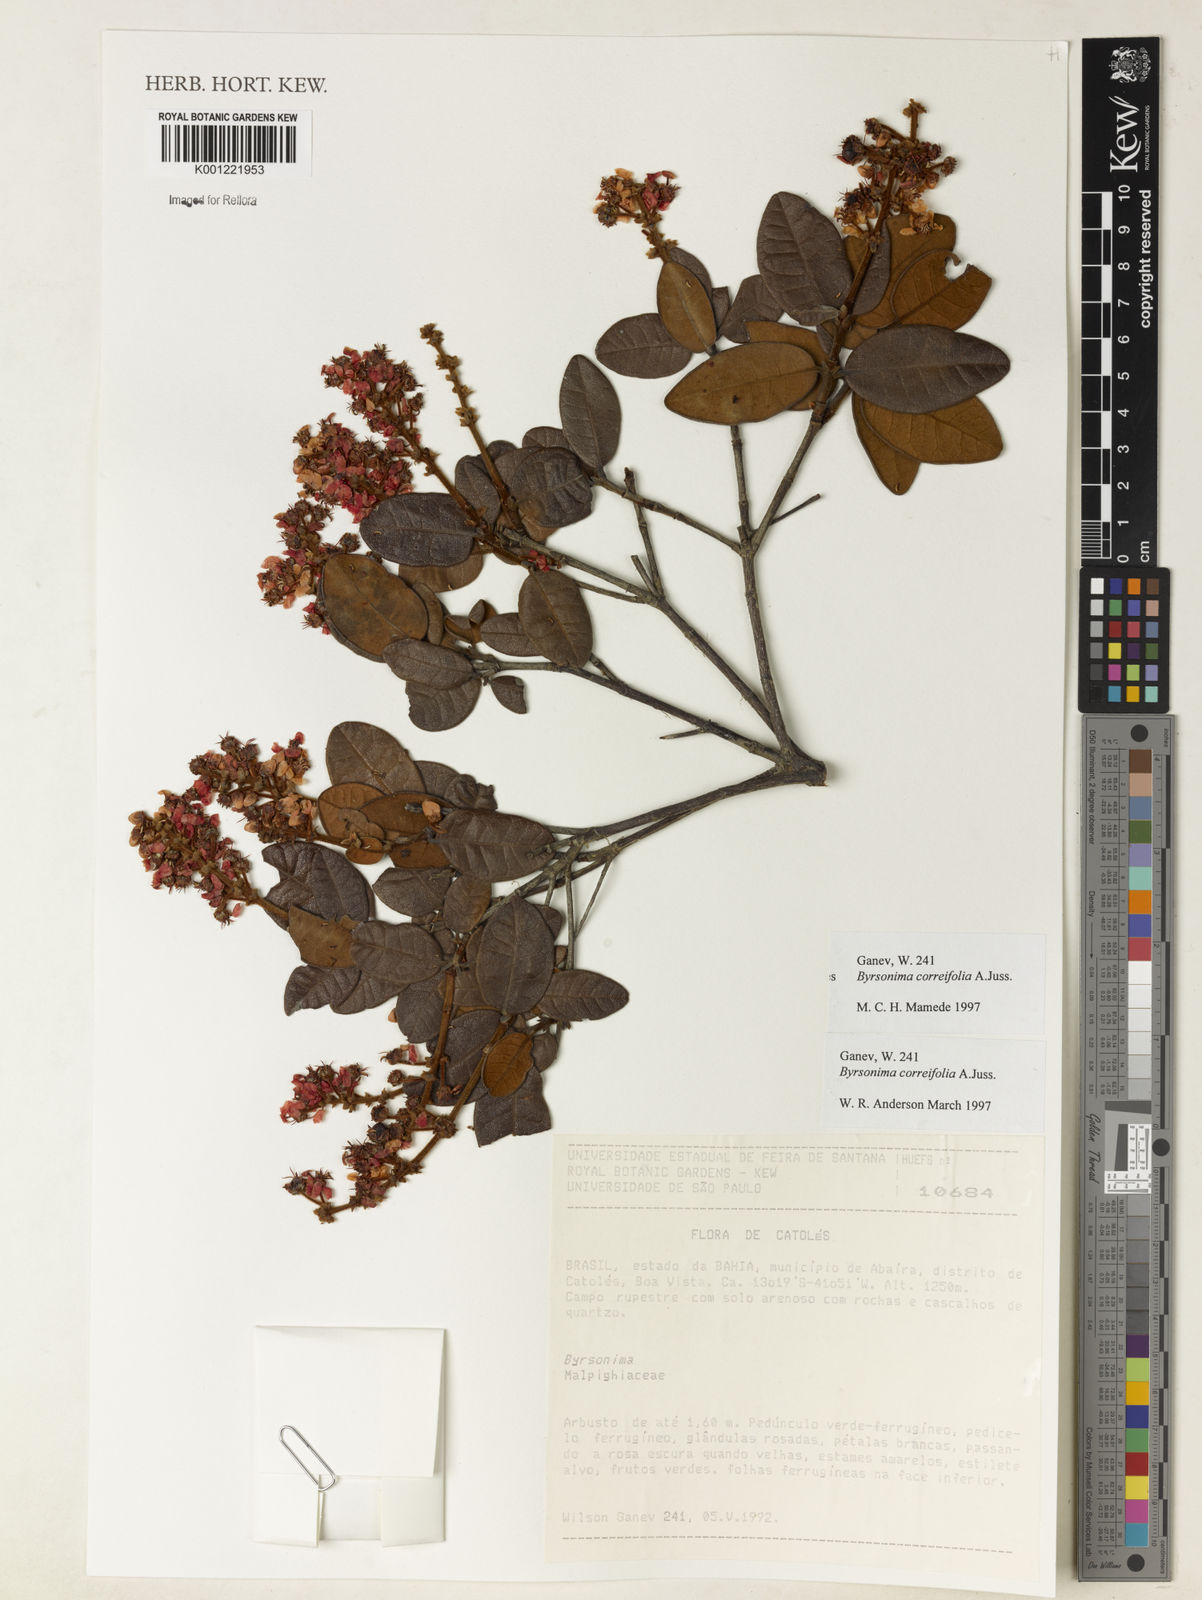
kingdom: Plantae
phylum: Tracheophyta
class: Magnoliopsida
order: Malpighiales
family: Malpighiaceae
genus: Byrsonima
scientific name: Byrsonima correifolia
